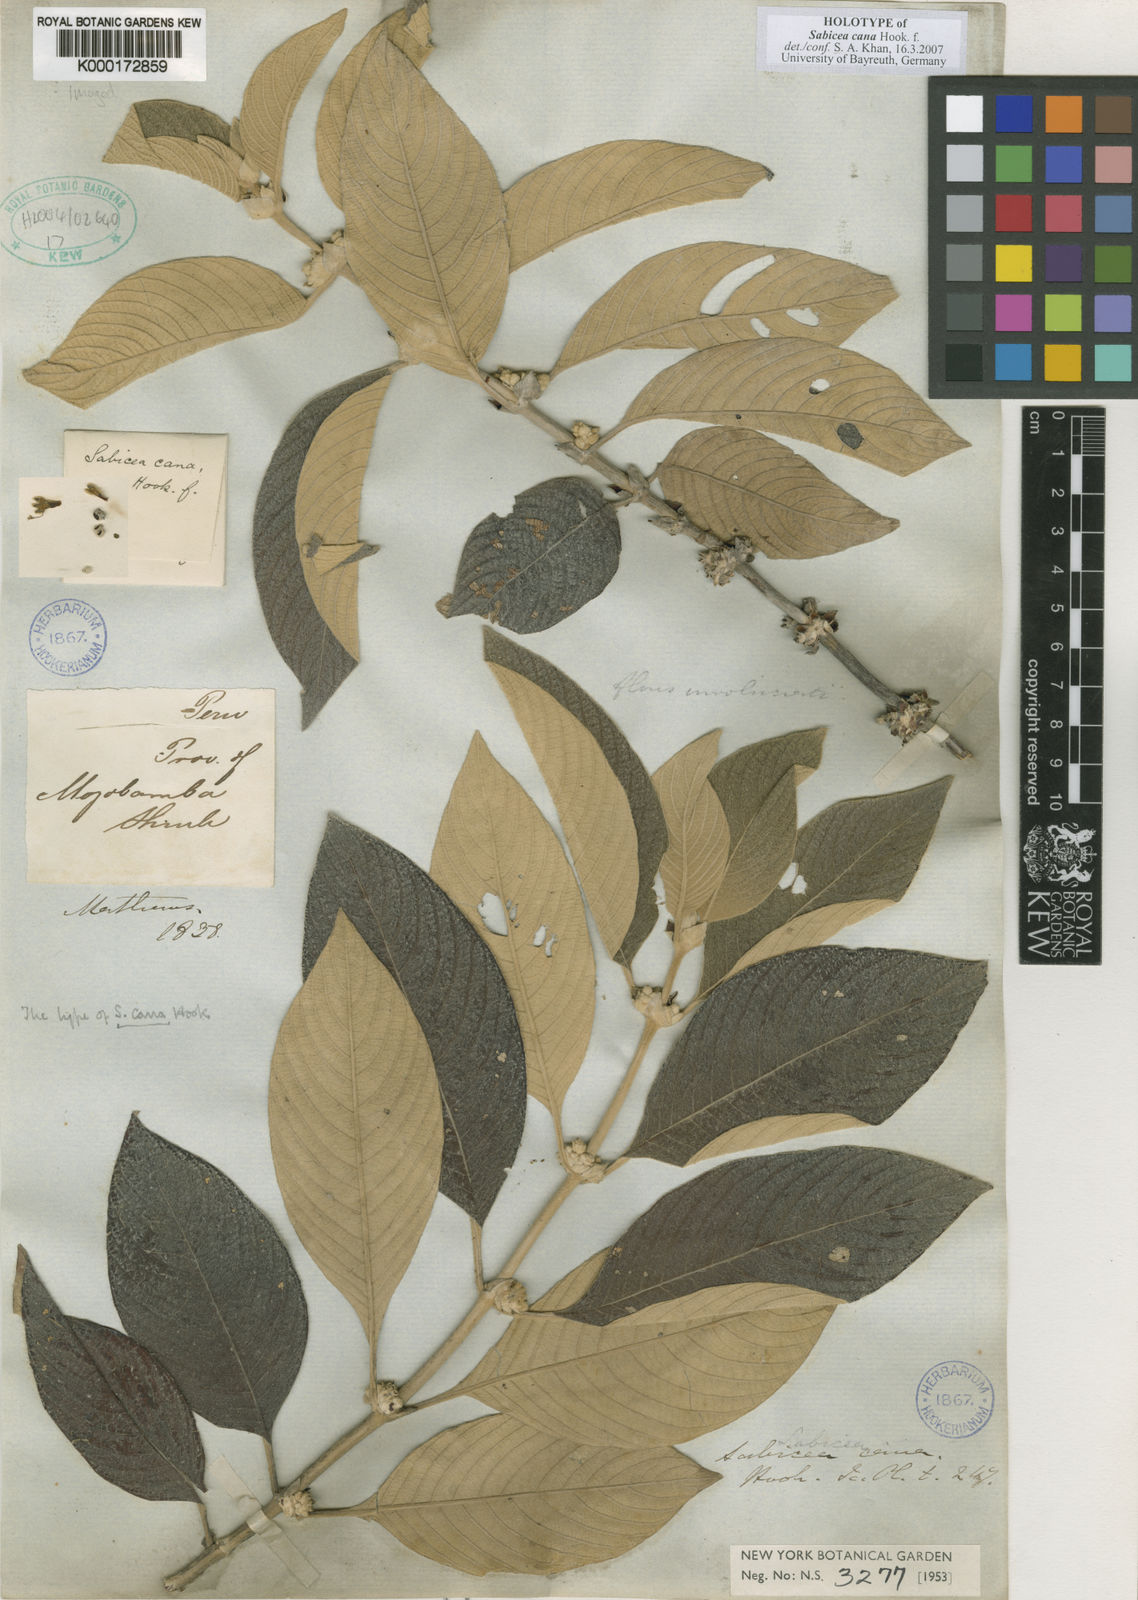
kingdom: Plantae
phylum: Tracheophyta
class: Magnoliopsida
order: Gentianales
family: Rubiaceae
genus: Sabicea
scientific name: Sabicea cana
